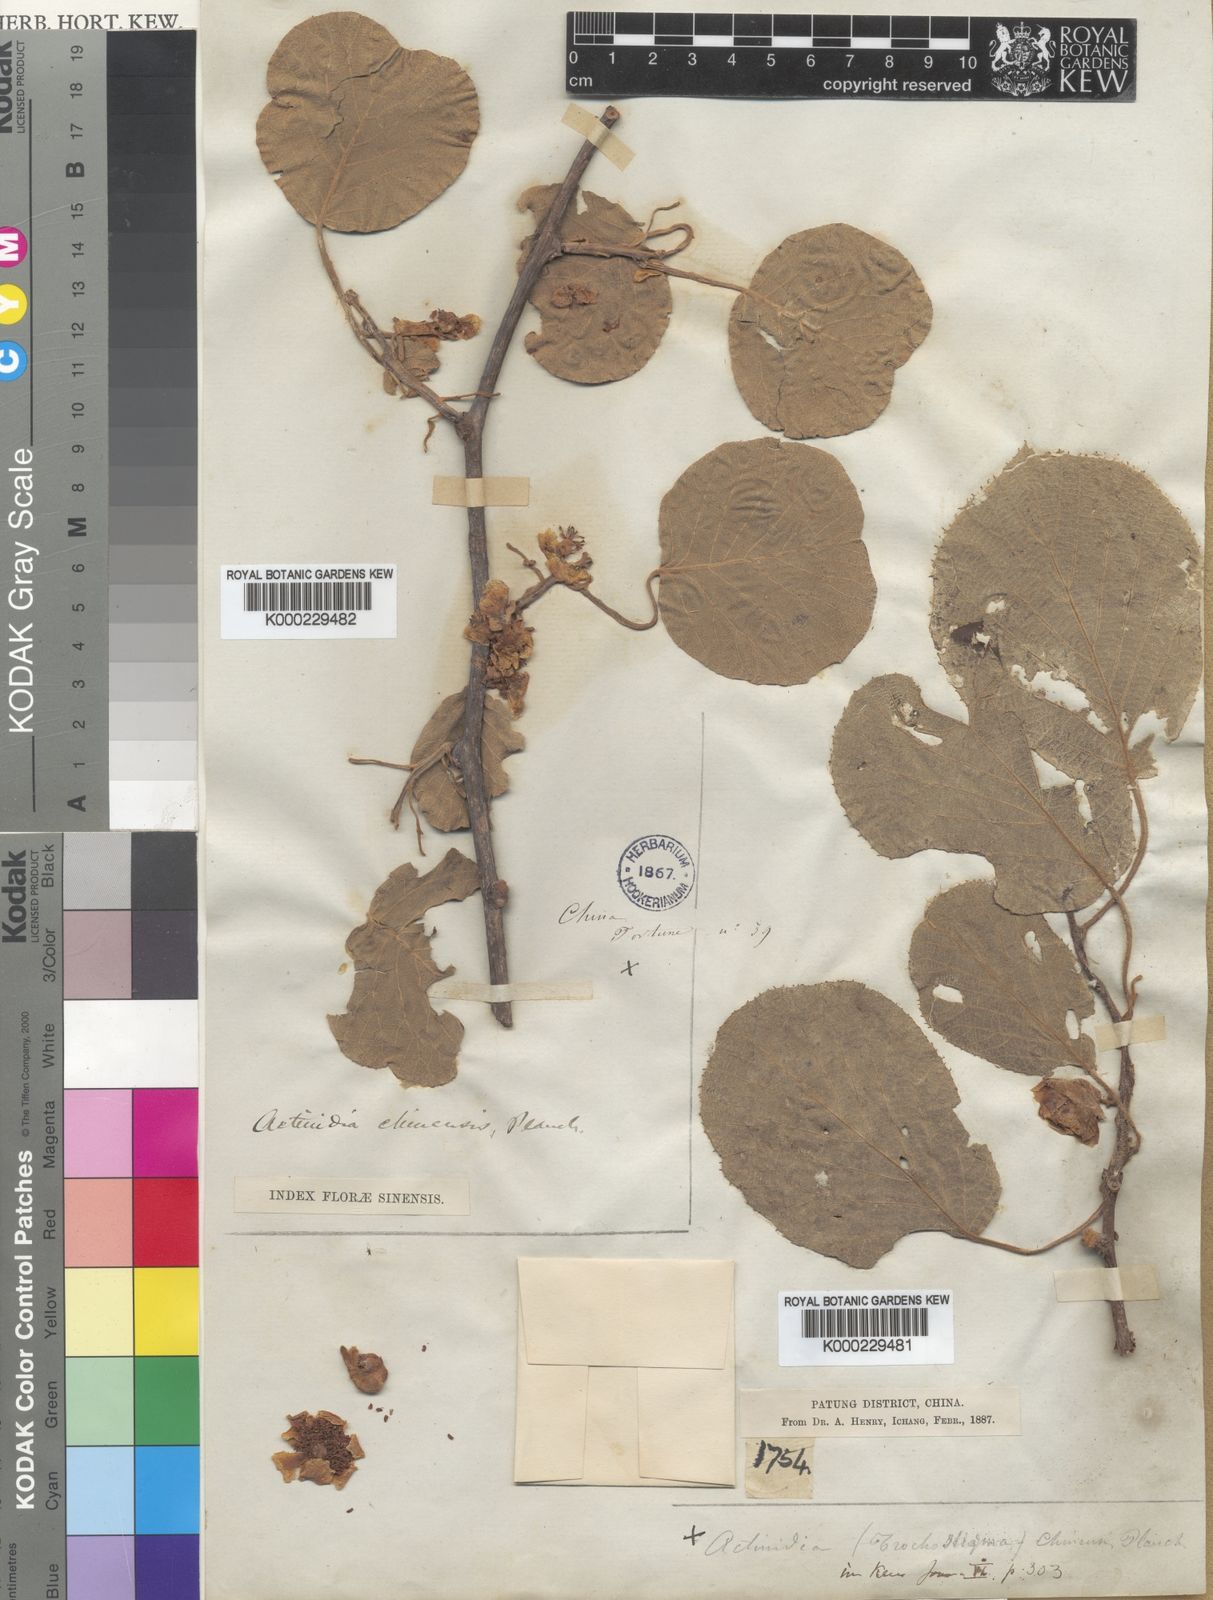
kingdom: Plantae
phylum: Tracheophyta
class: Magnoliopsida
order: Ericales
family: Actinidiaceae
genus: Actinidia
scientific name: Actinidia chinensis
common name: Kiwi
